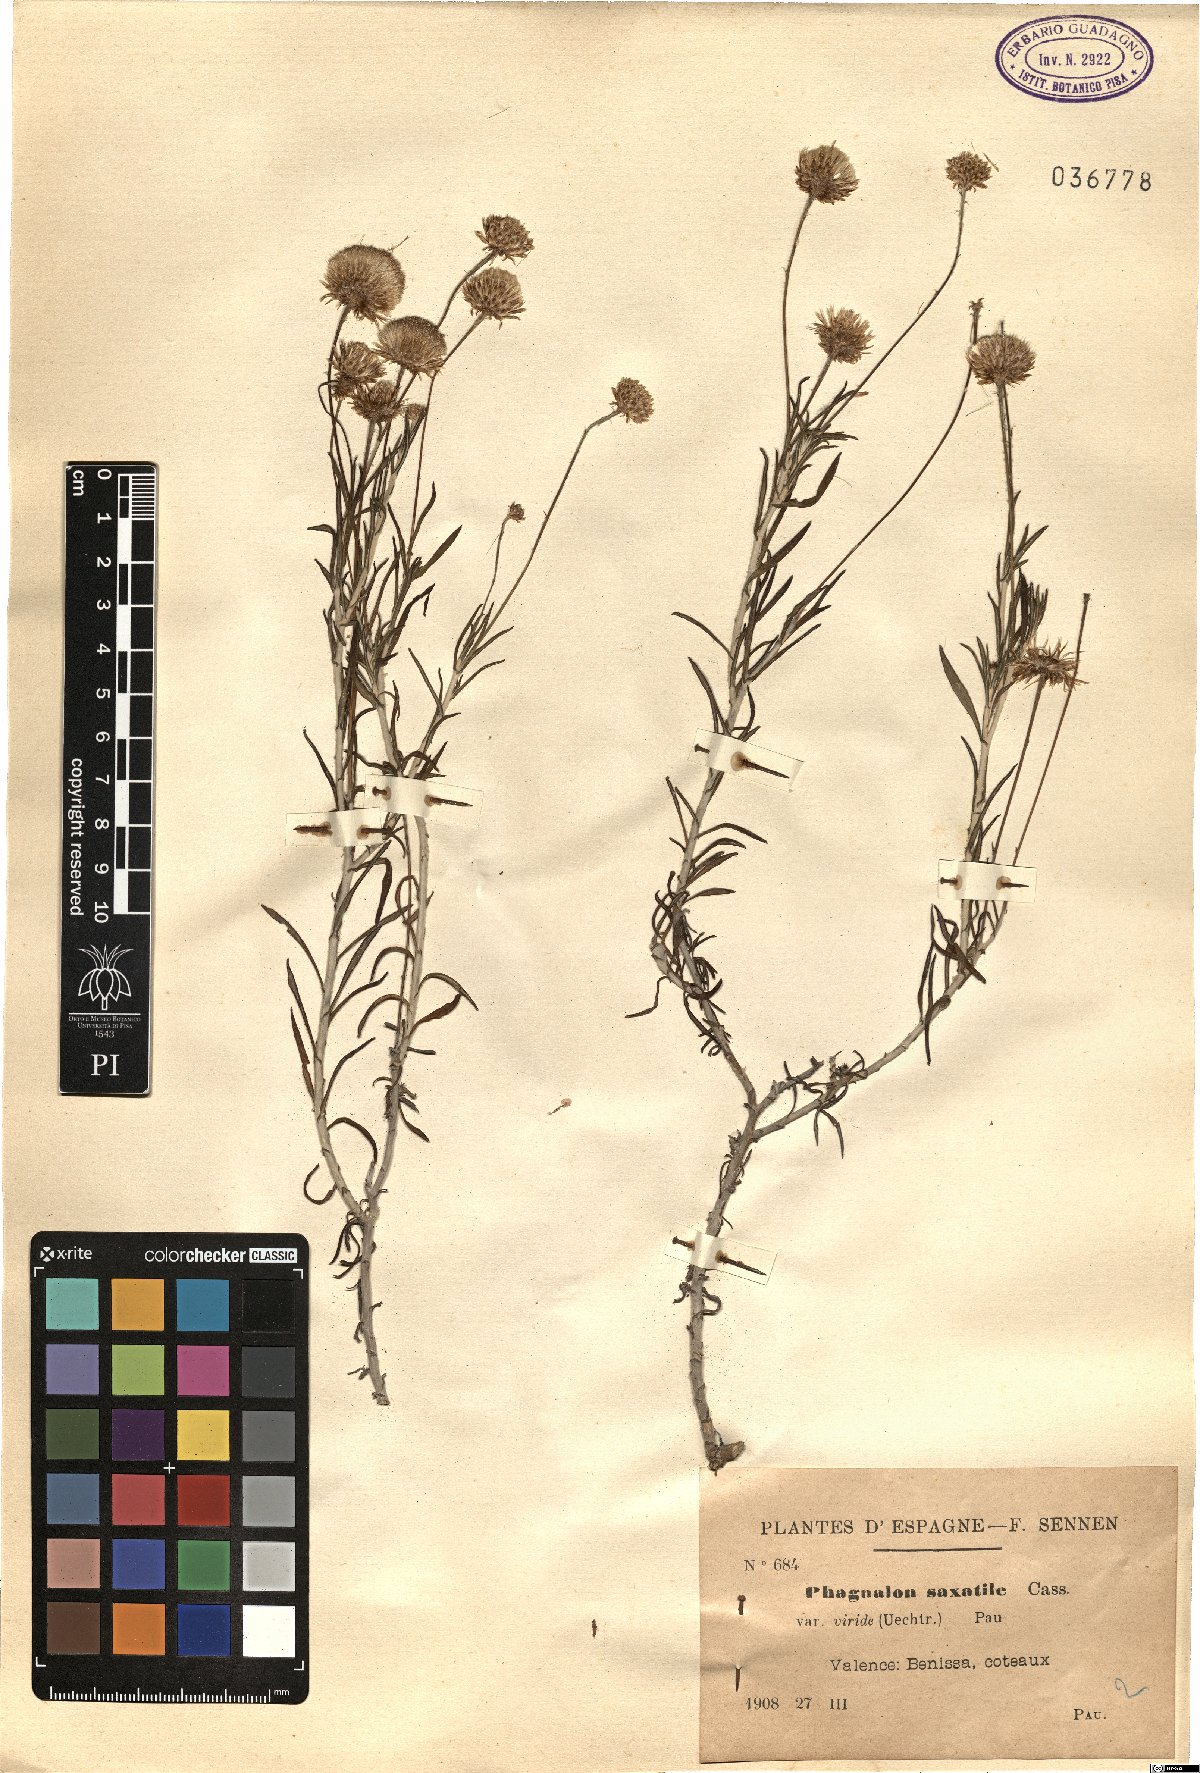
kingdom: Plantae
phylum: Tracheophyta
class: Magnoliopsida
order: Asterales
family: Asteraceae
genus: Phagnalon
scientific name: Phagnalon saxatile
